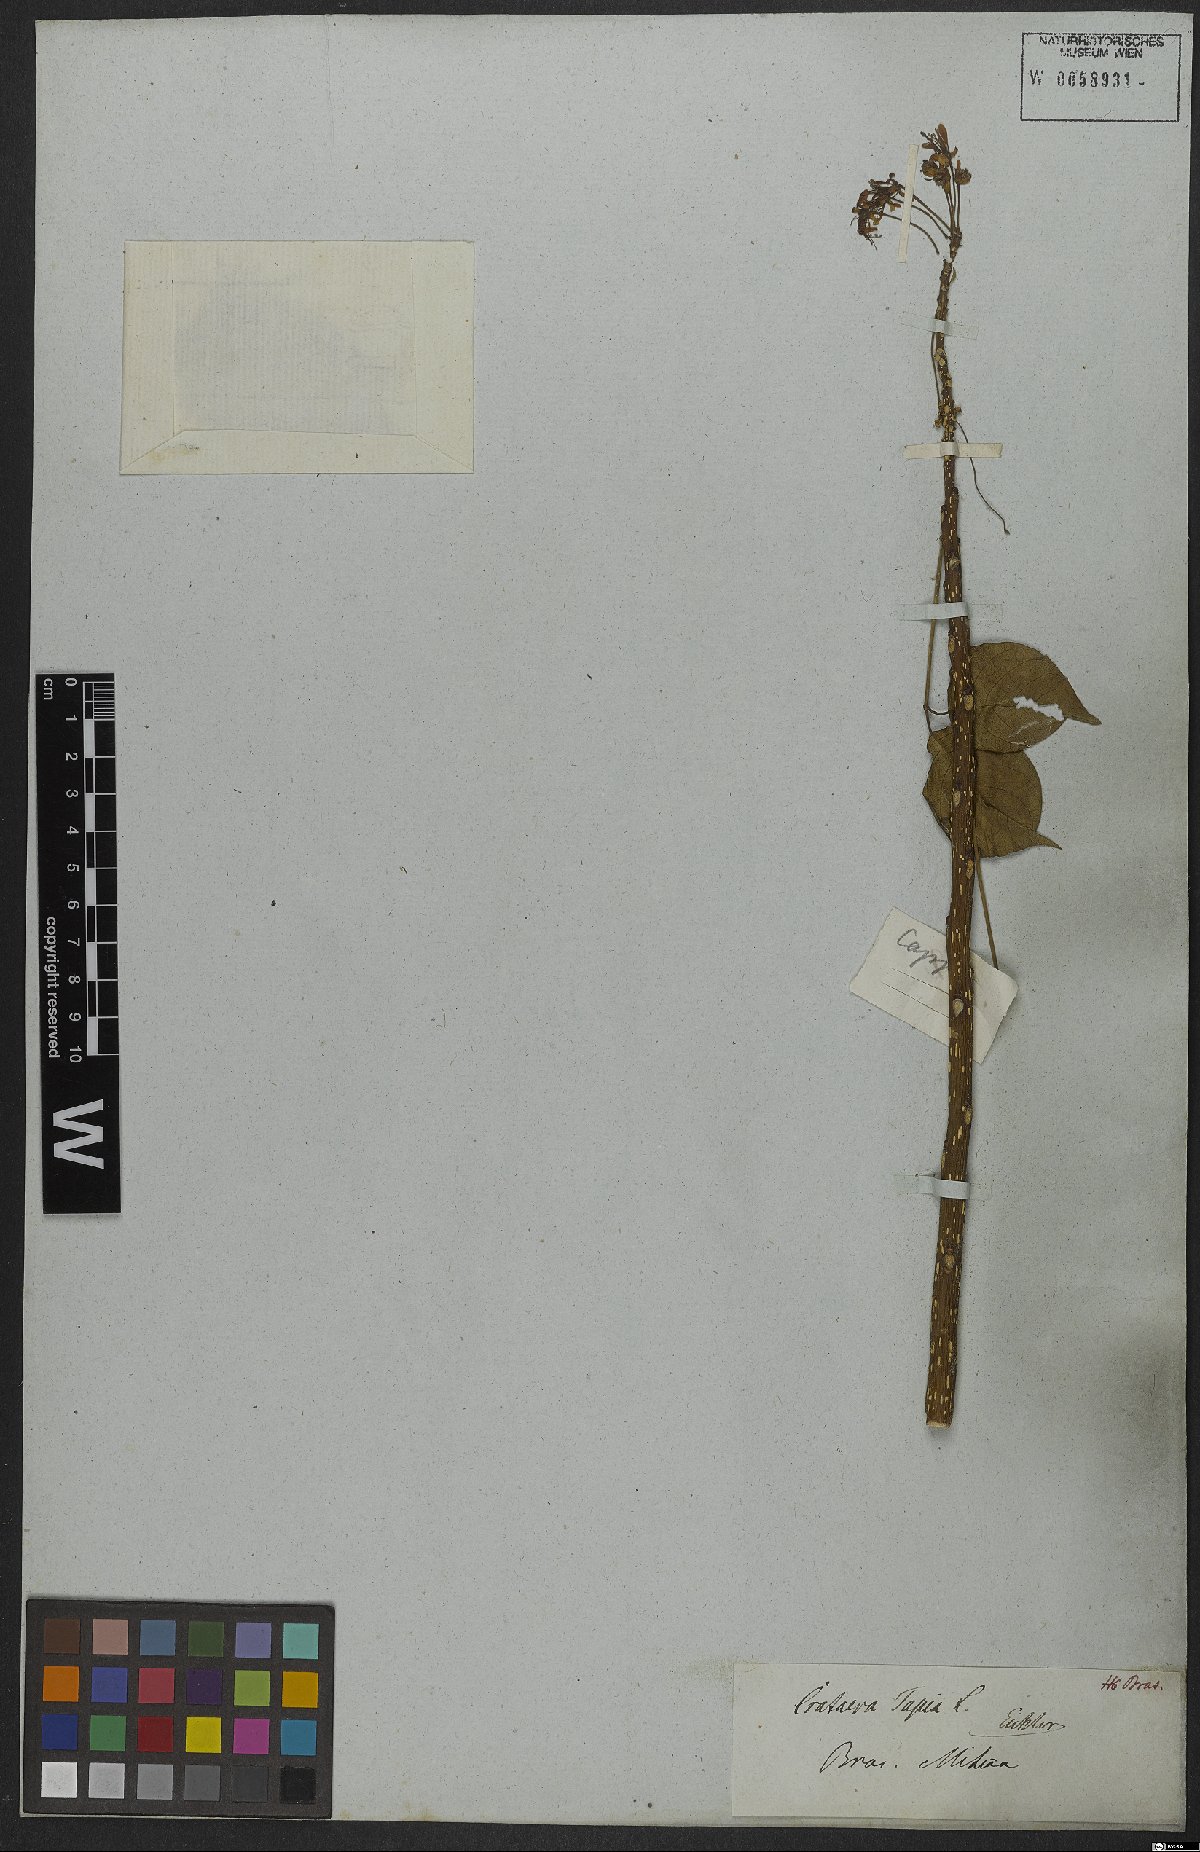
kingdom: Plantae
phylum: Tracheophyta
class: Magnoliopsida
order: Brassicales
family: Capparaceae
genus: Crateva
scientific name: Crateva tapia
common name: Garlic-pear
